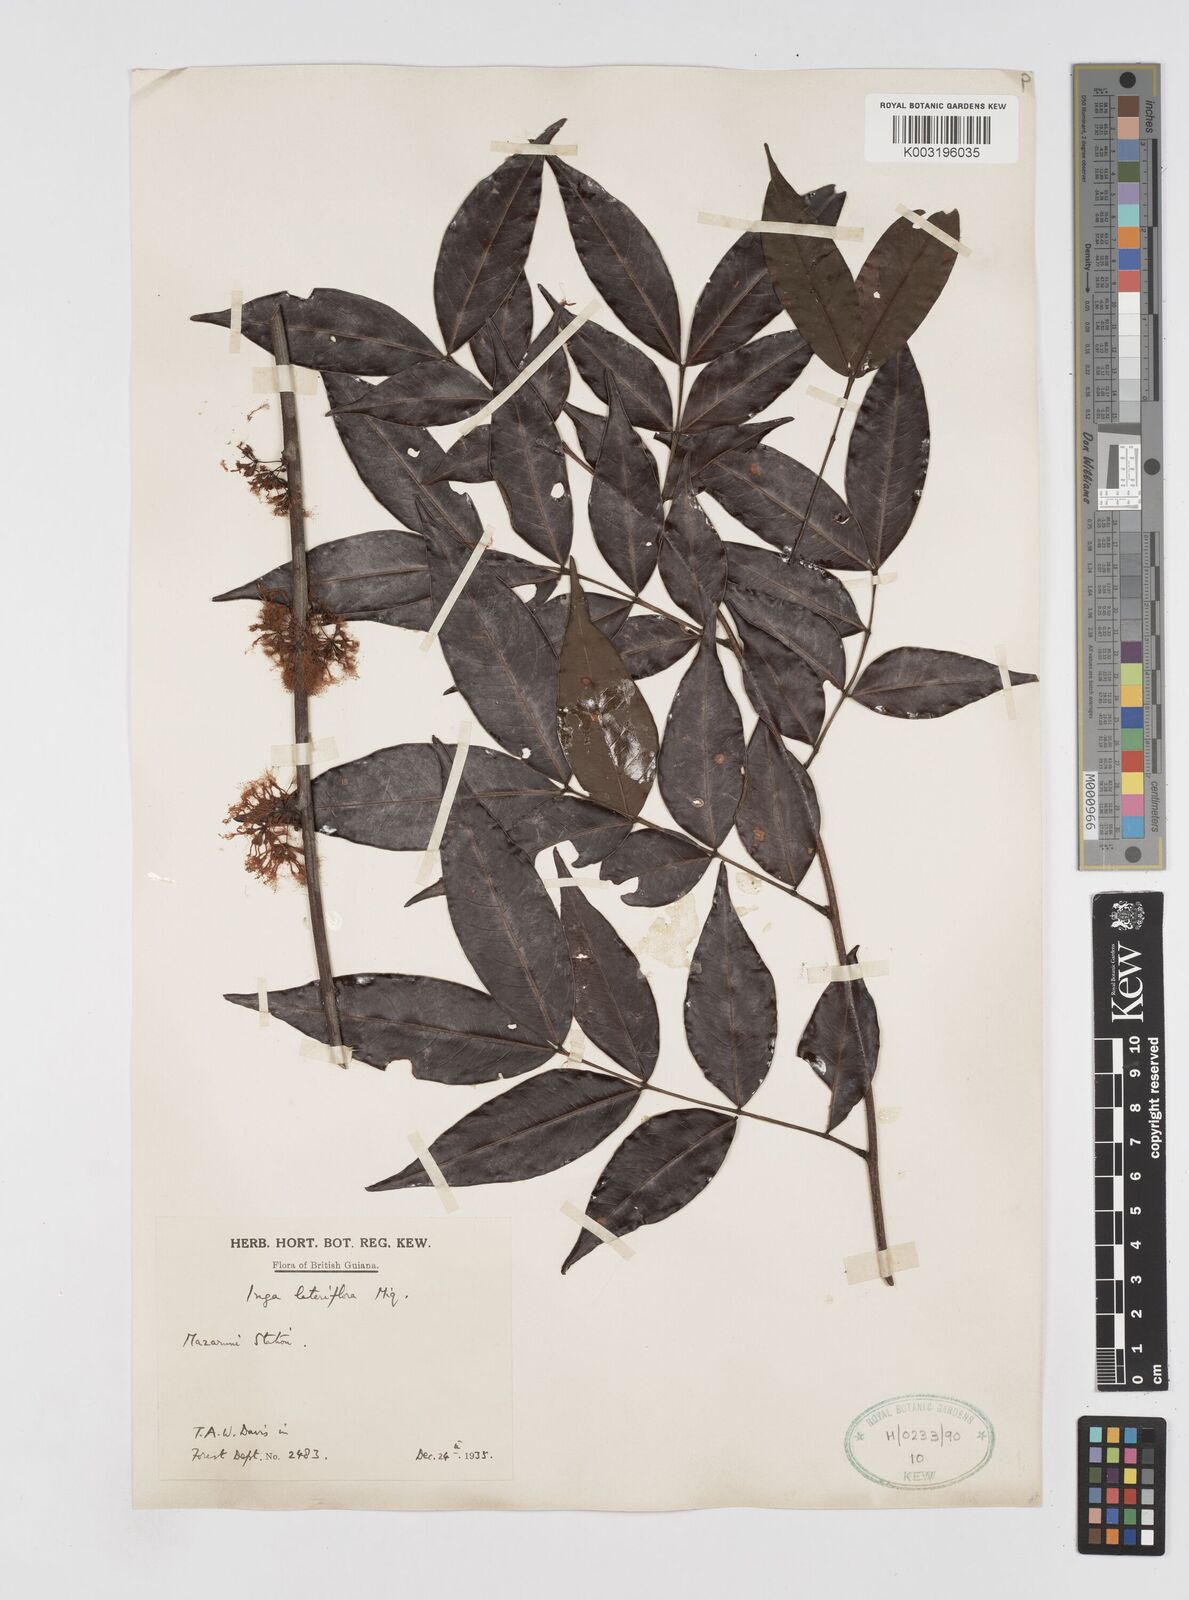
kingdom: Plantae
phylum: Tracheophyta
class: Magnoliopsida
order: Fabales
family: Fabaceae
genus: Inga
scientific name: Inga lateriflora
